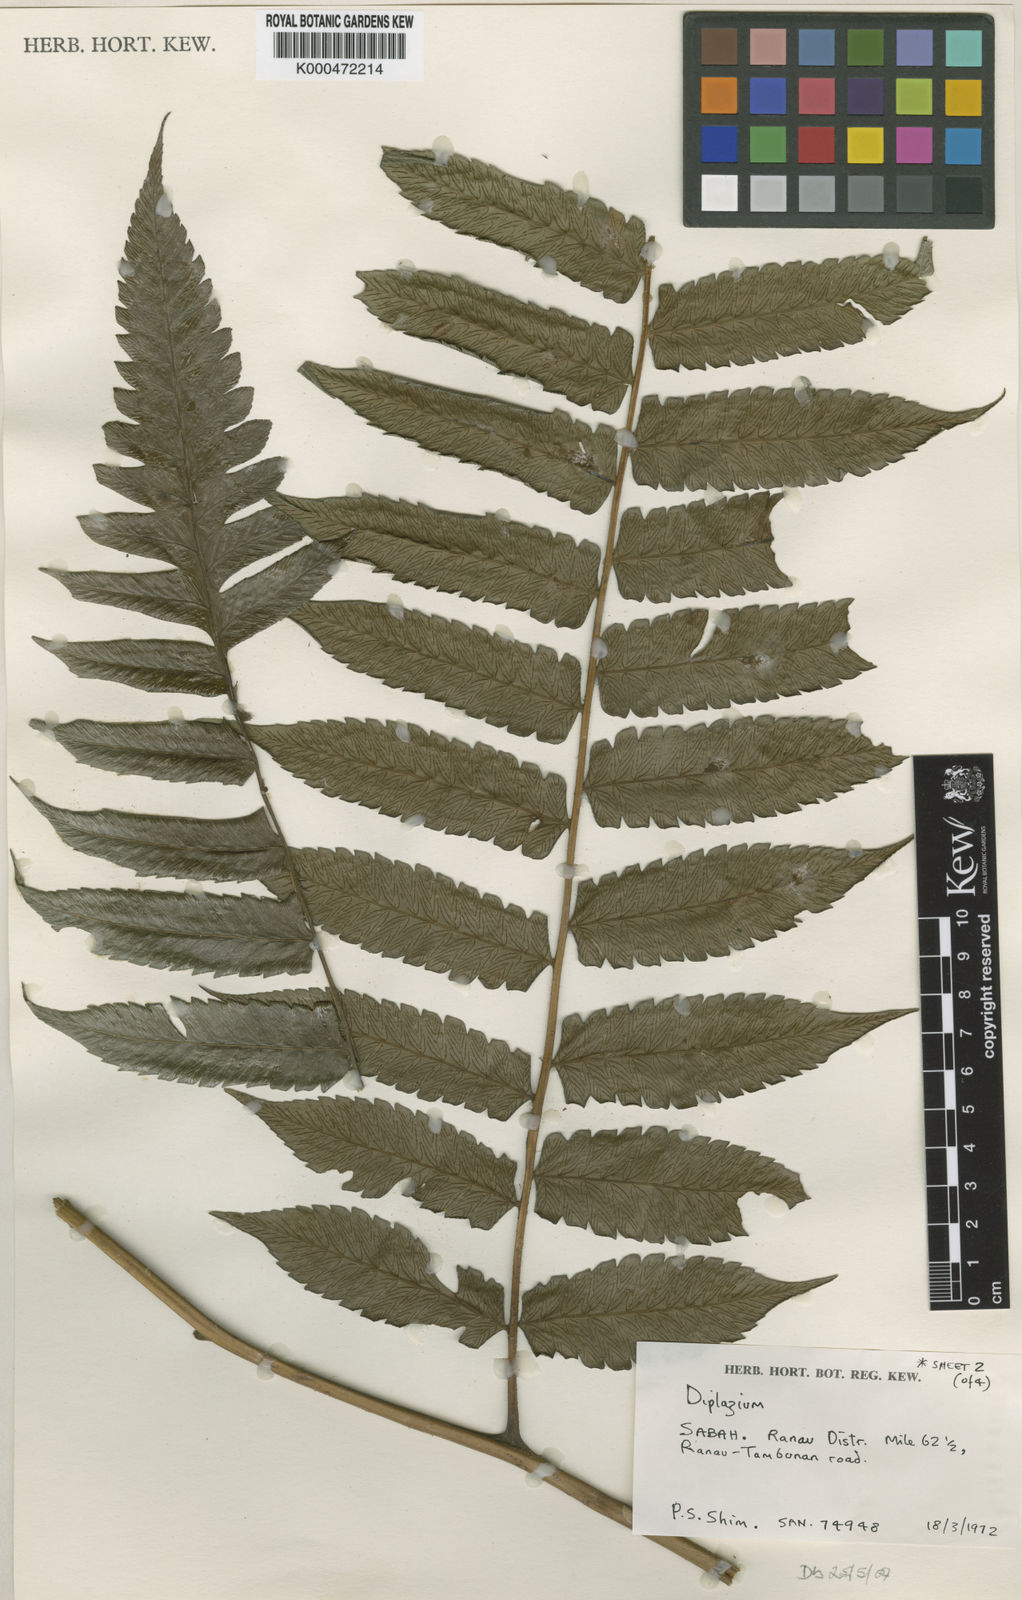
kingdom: Plantae
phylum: Tracheophyta
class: Polypodiopsida
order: Polypodiales
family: Athyriaceae
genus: Diplazium
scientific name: Diplazium dilatatum
